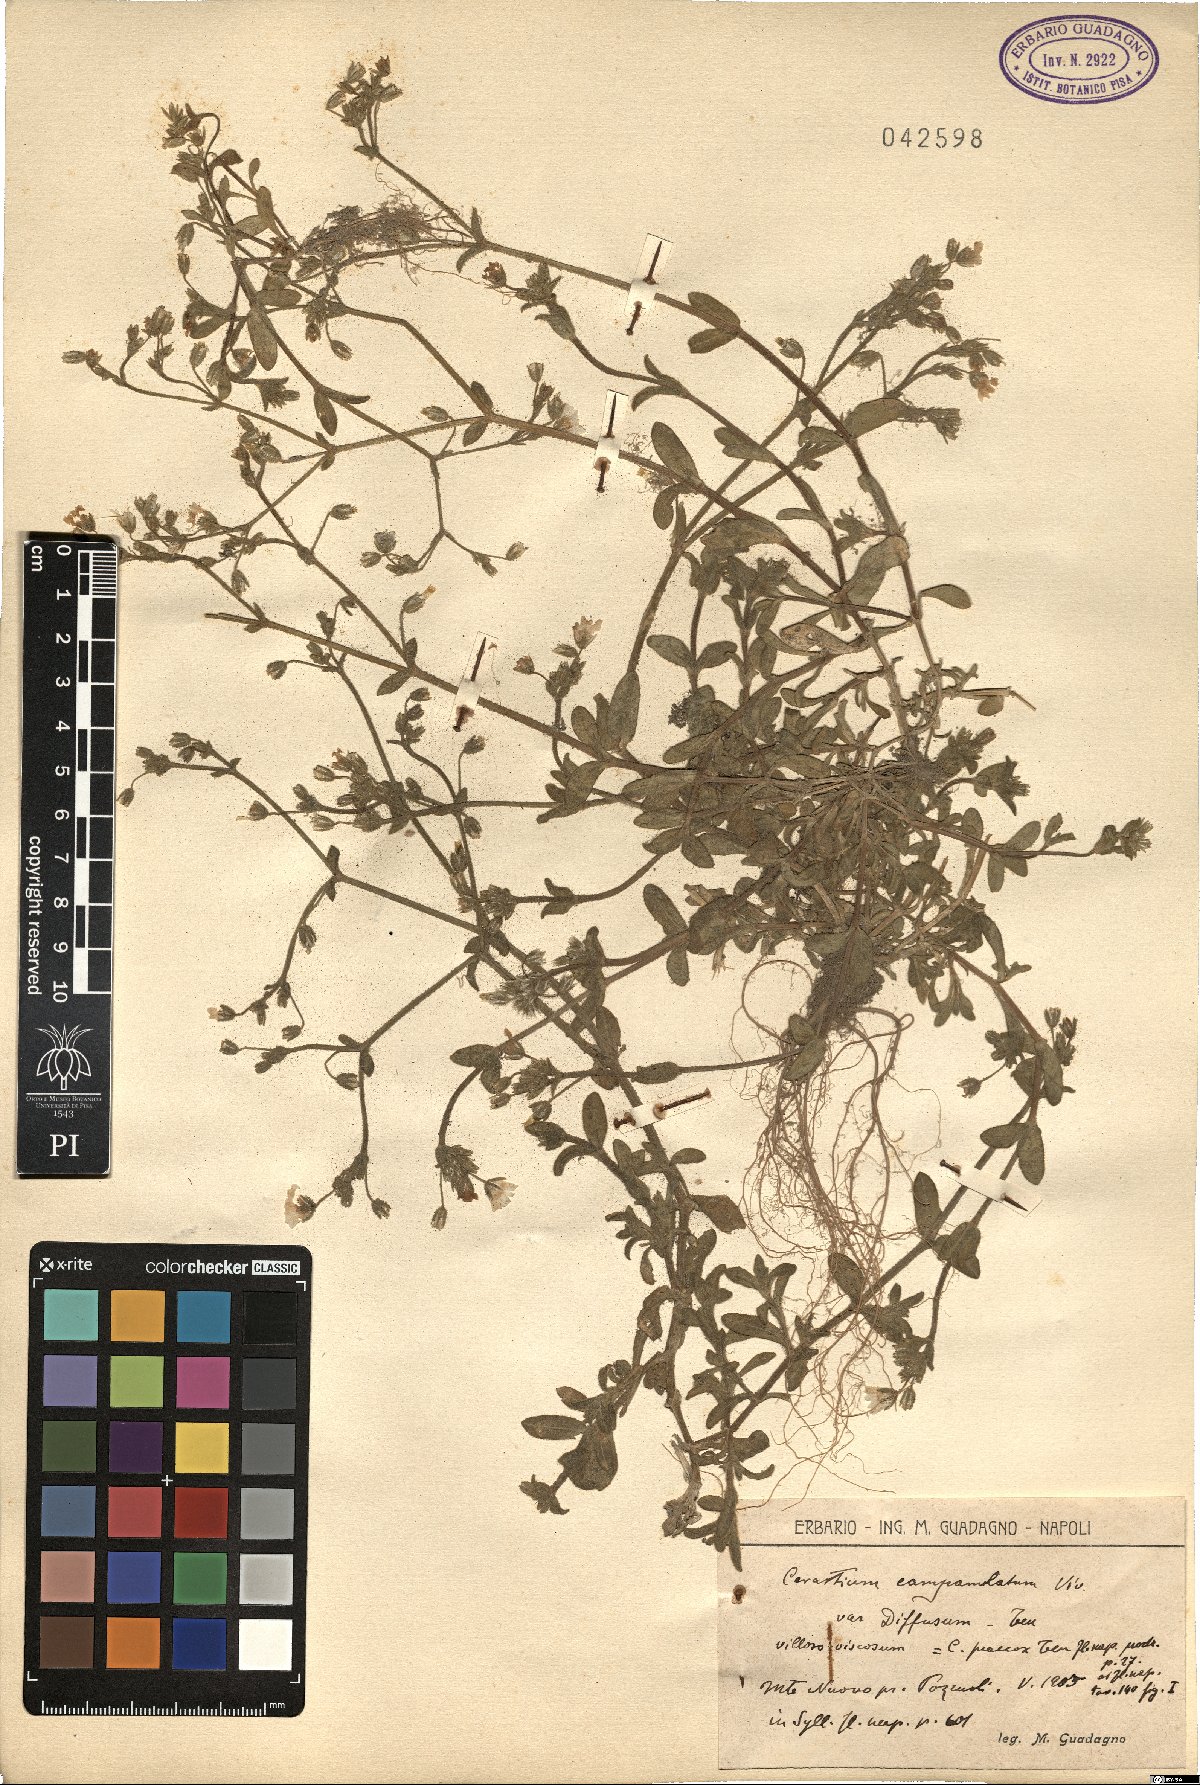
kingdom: Plantae
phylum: Tracheophyta
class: Magnoliopsida
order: Caryophyllales
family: Caryophyllaceae
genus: Cerastium
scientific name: Cerastium ligusticum
